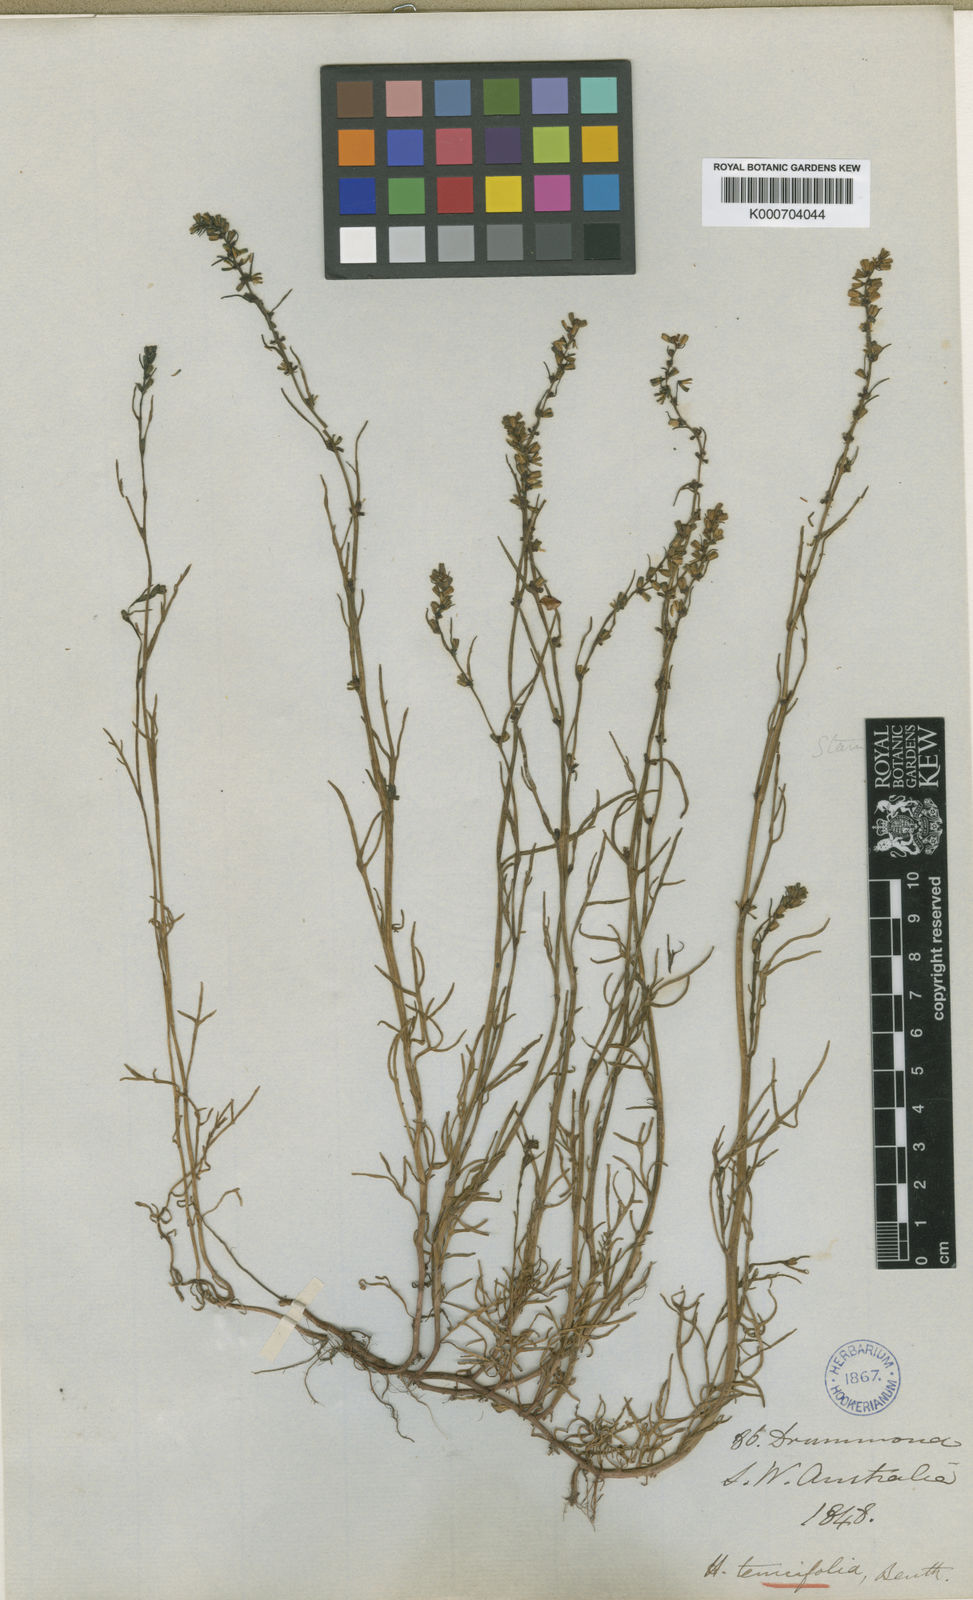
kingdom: Plantae
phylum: Tracheophyta
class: Magnoliopsida
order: Saxifragales
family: Haloragaceae
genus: Haloragis
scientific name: Haloragis tenuifolia
